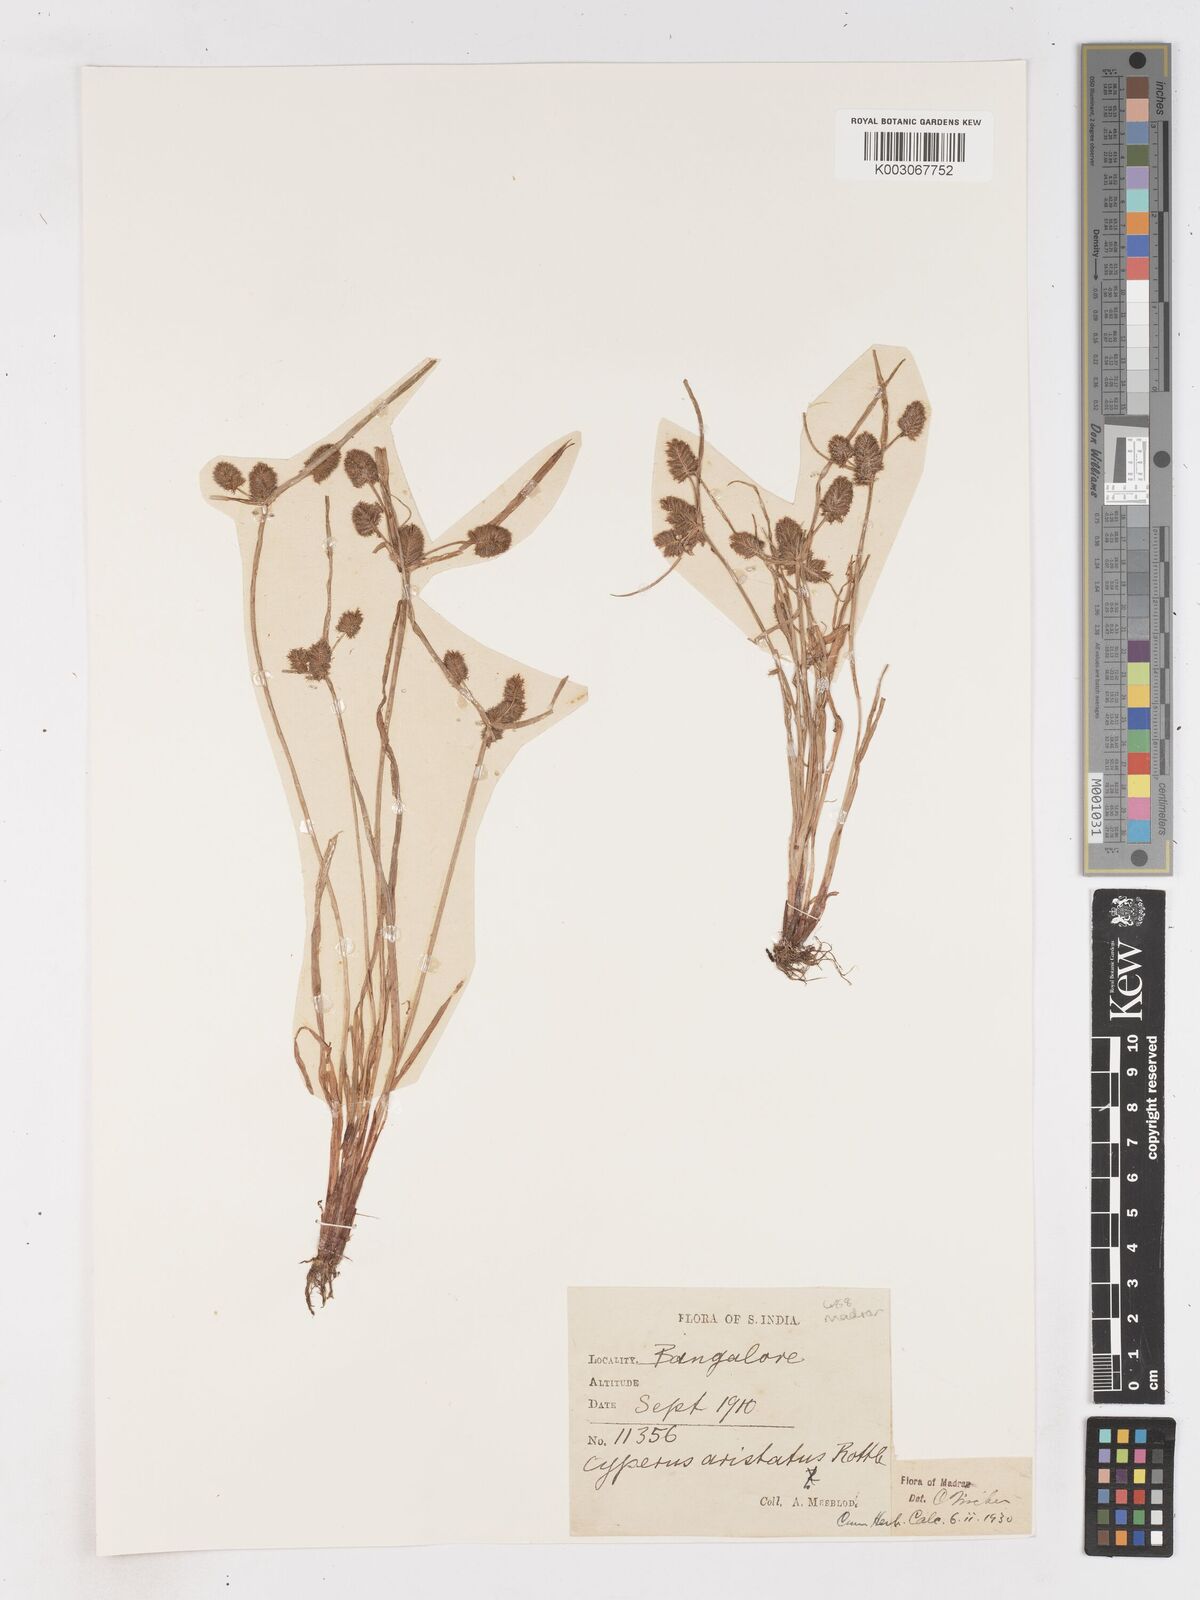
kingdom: Plantae
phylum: Tracheophyta
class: Liliopsida
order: Poales
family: Cyperaceae
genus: Cyperus
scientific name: Cyperus squarrosus
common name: Awned cyperus
